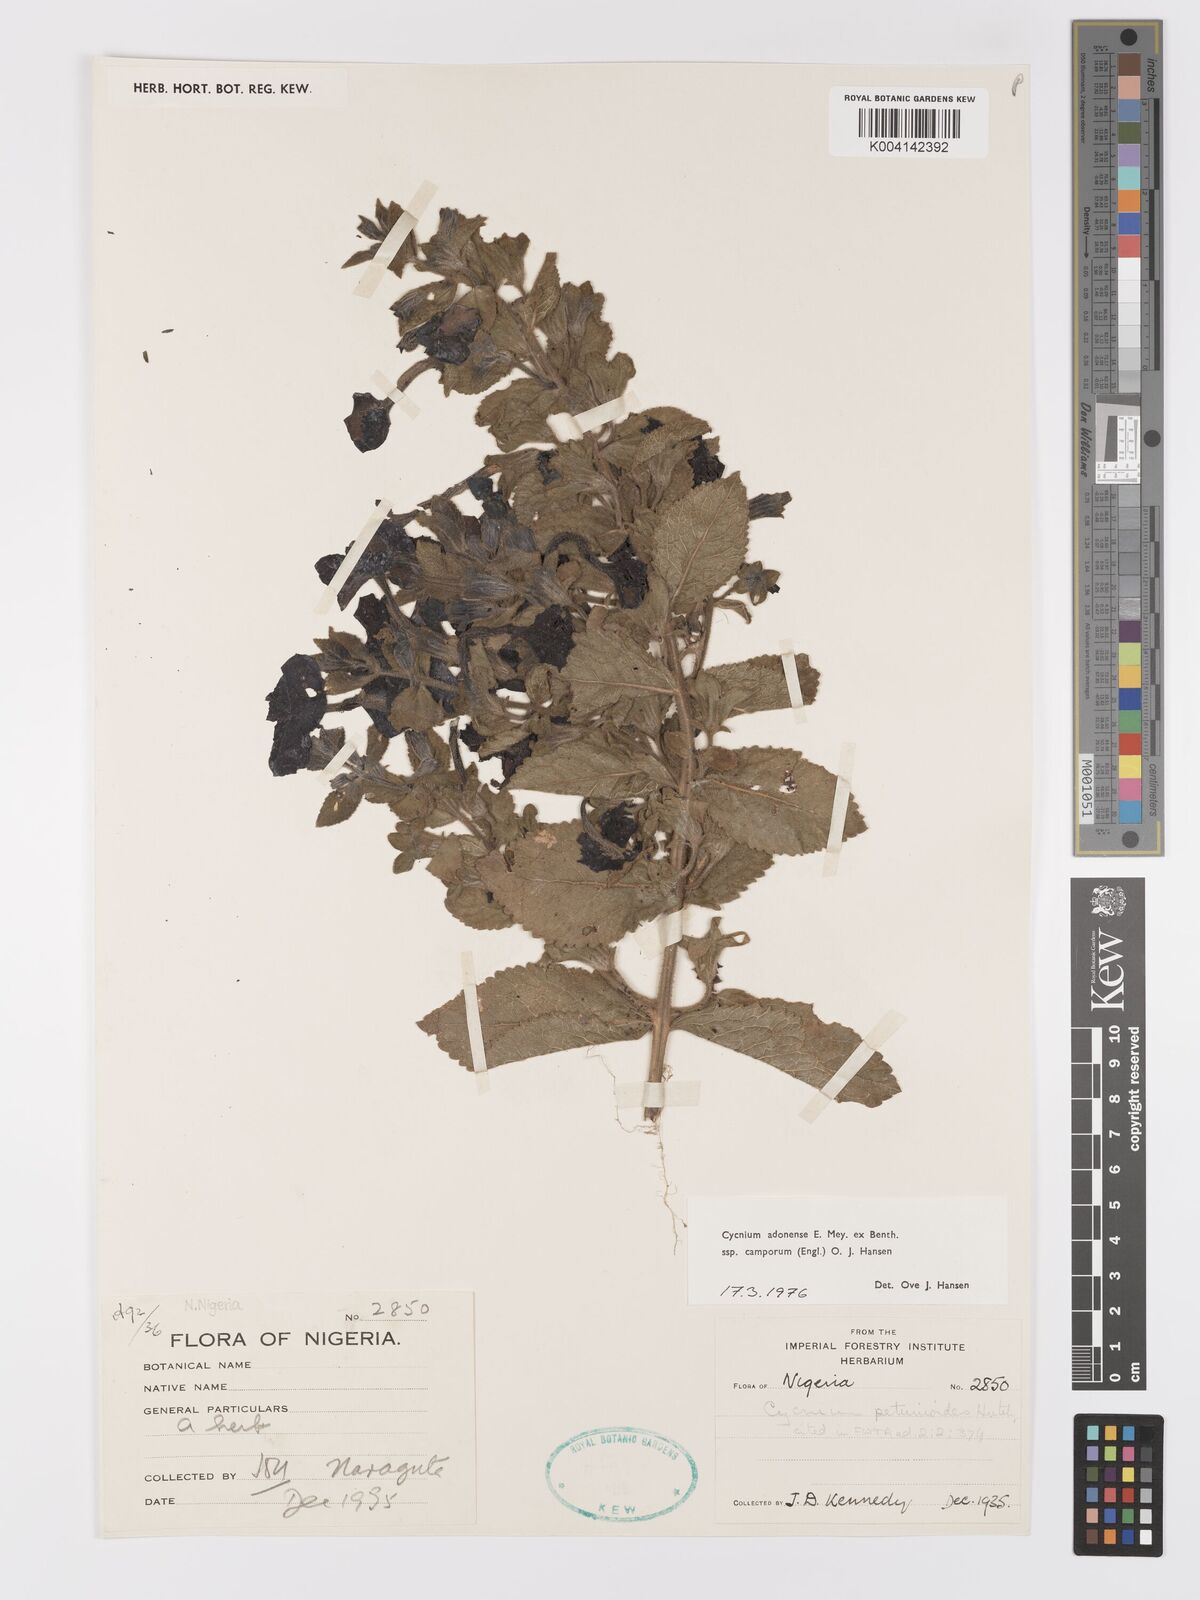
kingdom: Plantae
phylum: Tracheophyta
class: Magnoliopsida
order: Lamiales
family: Orobanchaceae
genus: Cycnium
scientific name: Cycnium adoense
